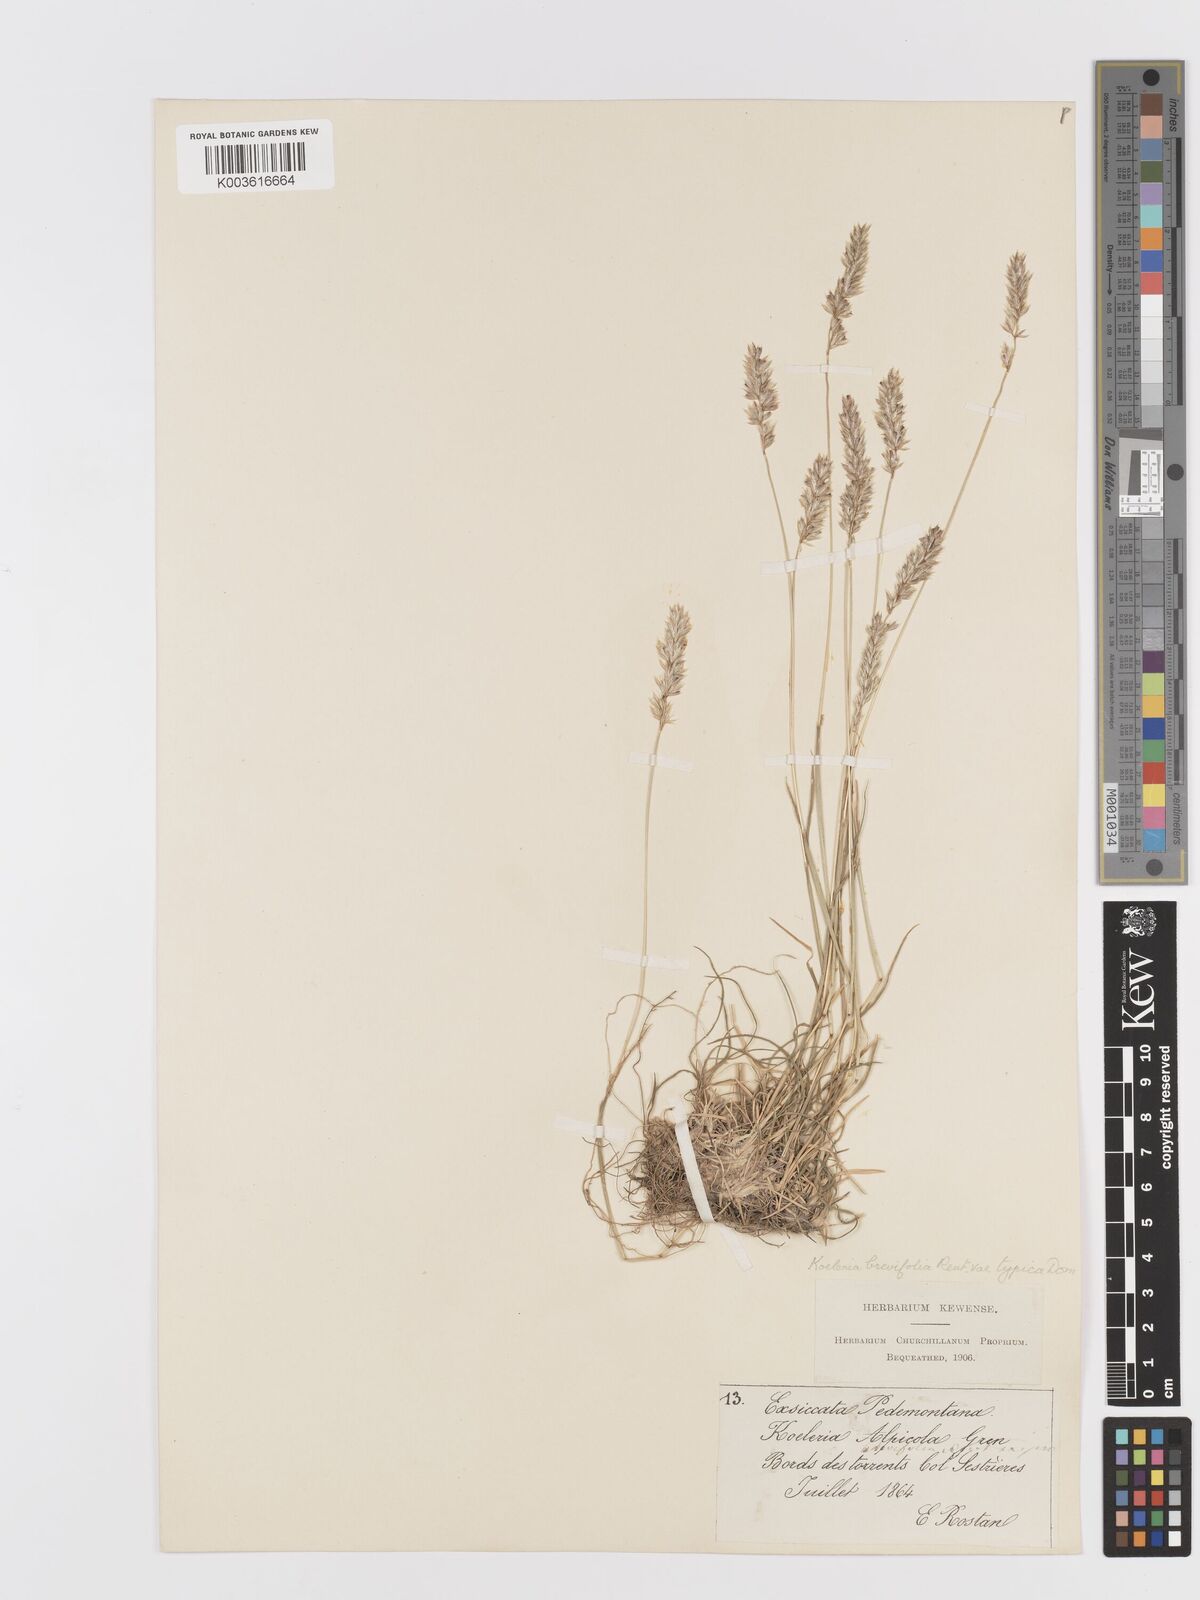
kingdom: Plantae
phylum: Tracheophyta
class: Liliopsida
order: Poales
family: Poaceae
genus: Koeleria
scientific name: Koeleria cenisia
